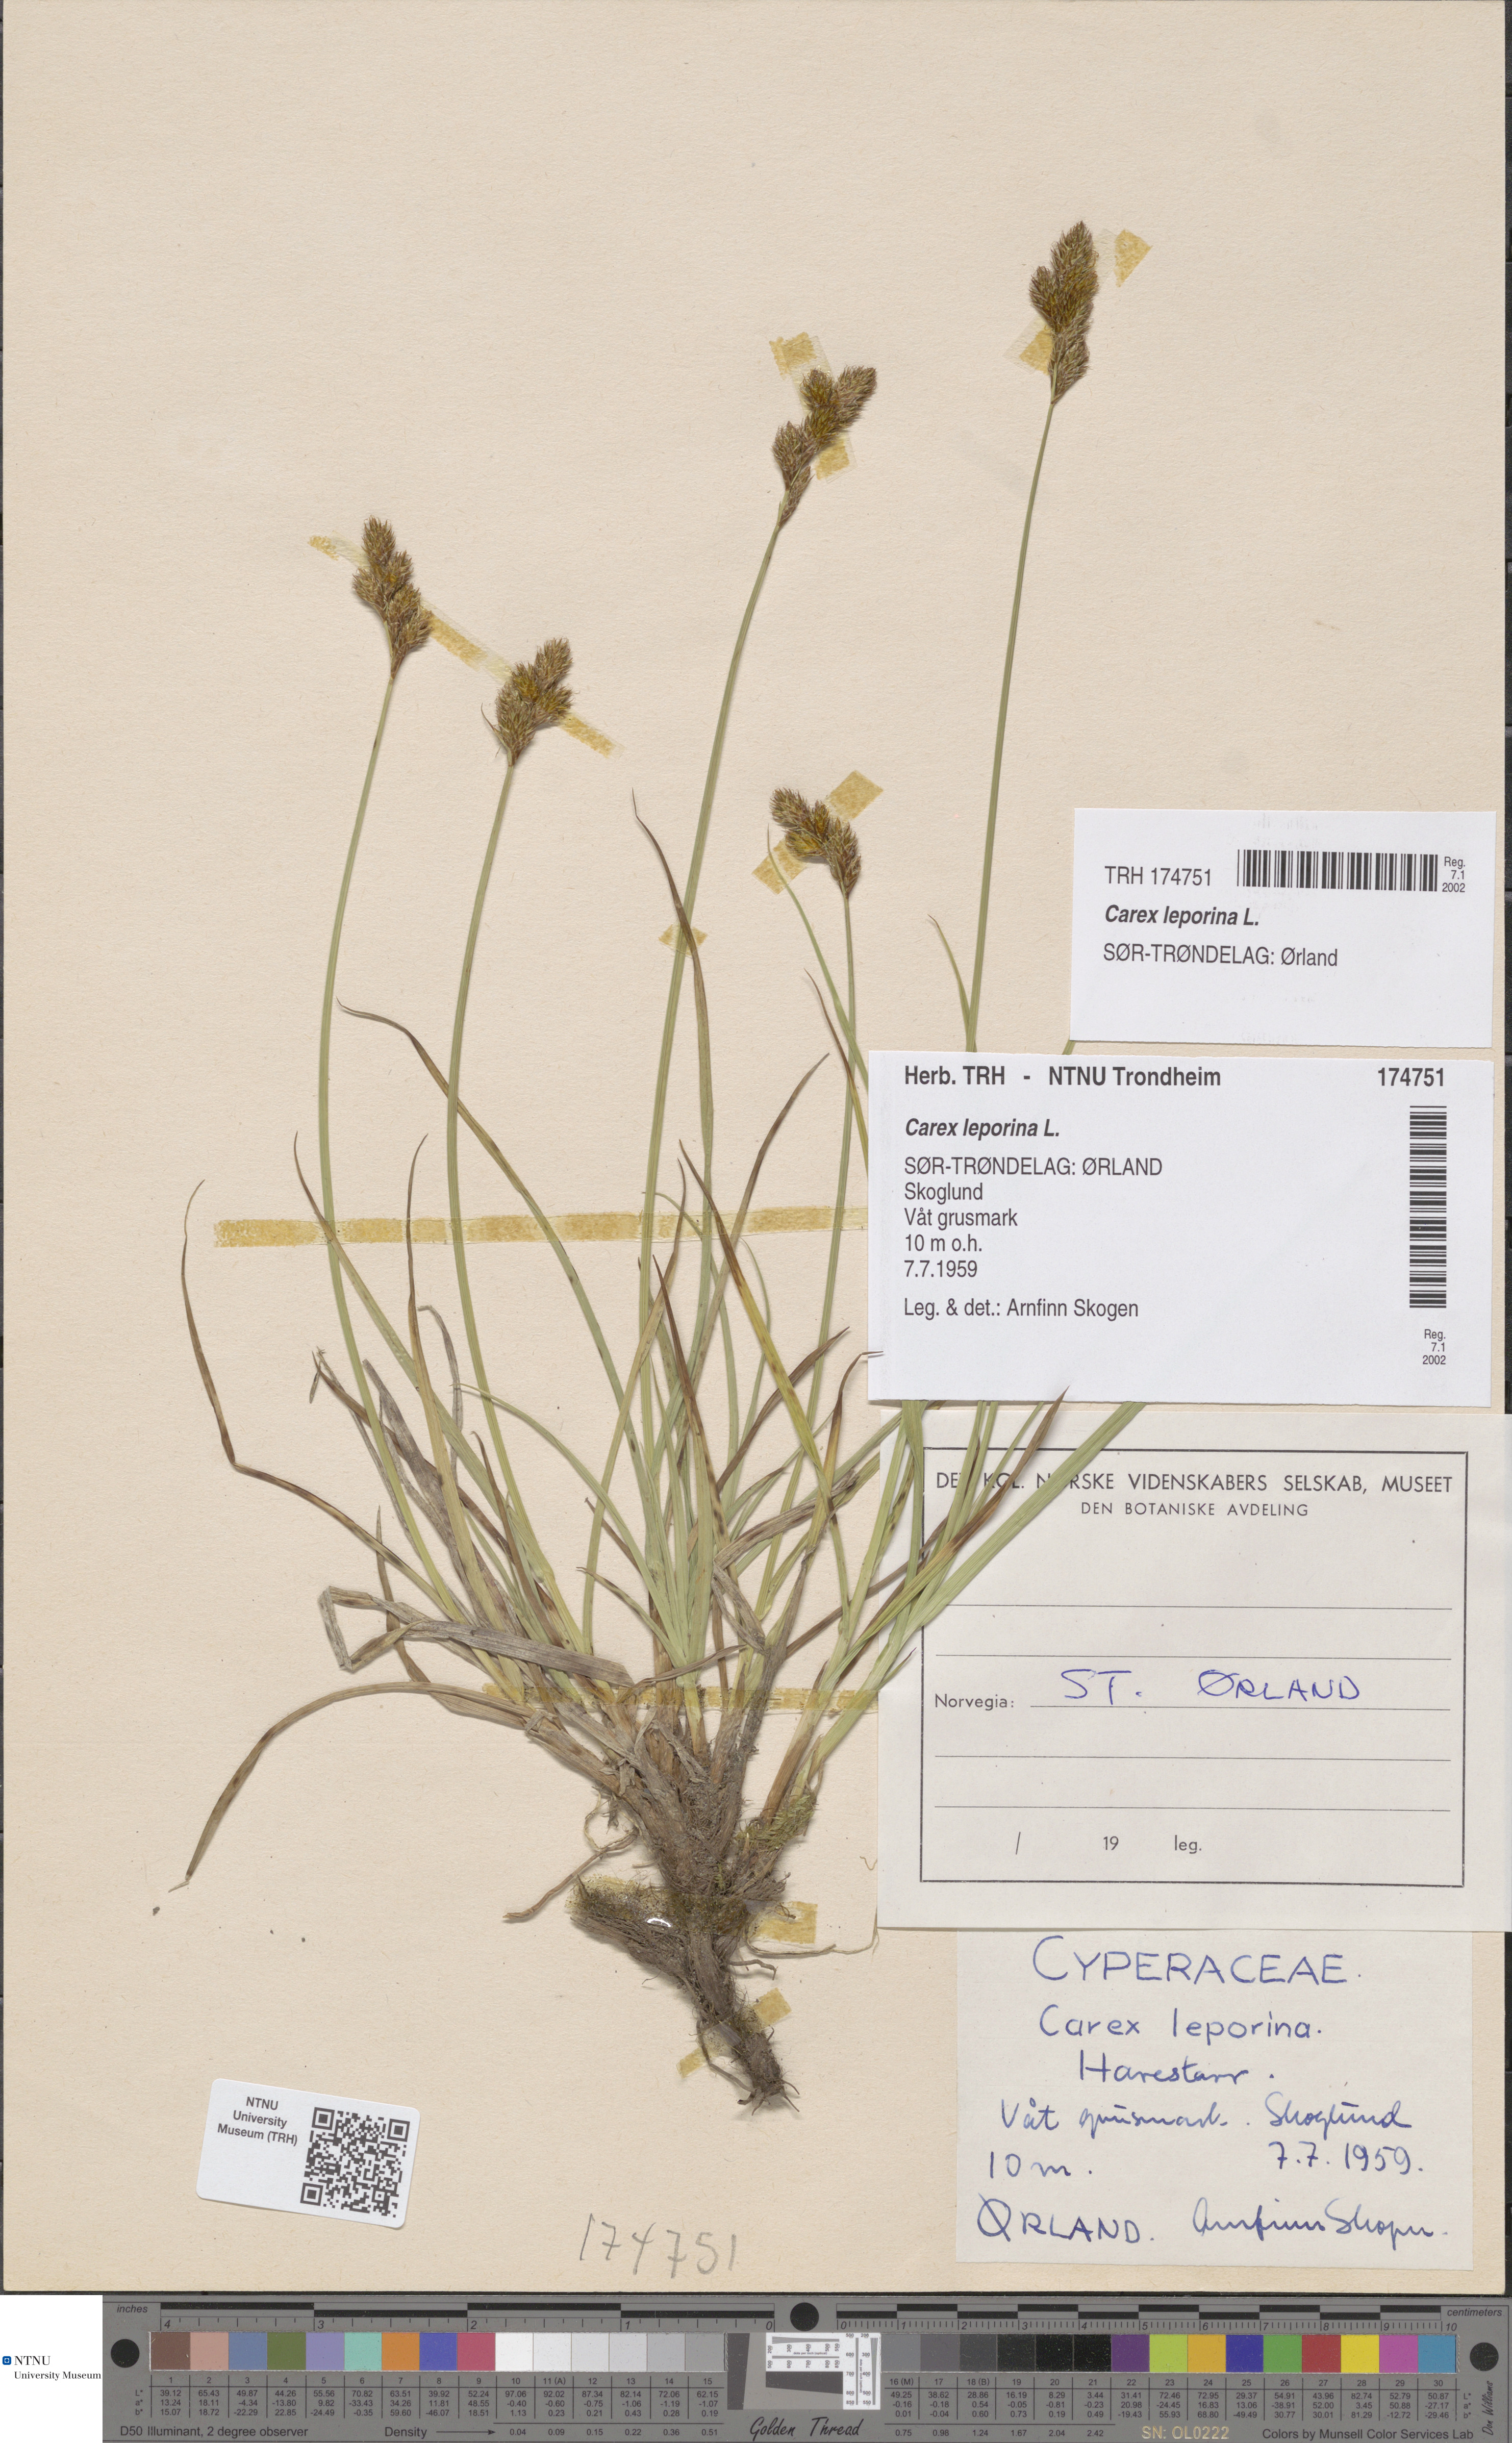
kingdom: Plantae
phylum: Tracheophyta
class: Liliopsida
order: Poales
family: Cyperaceae
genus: Carex
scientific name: Carex leporina
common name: Oval sedge
